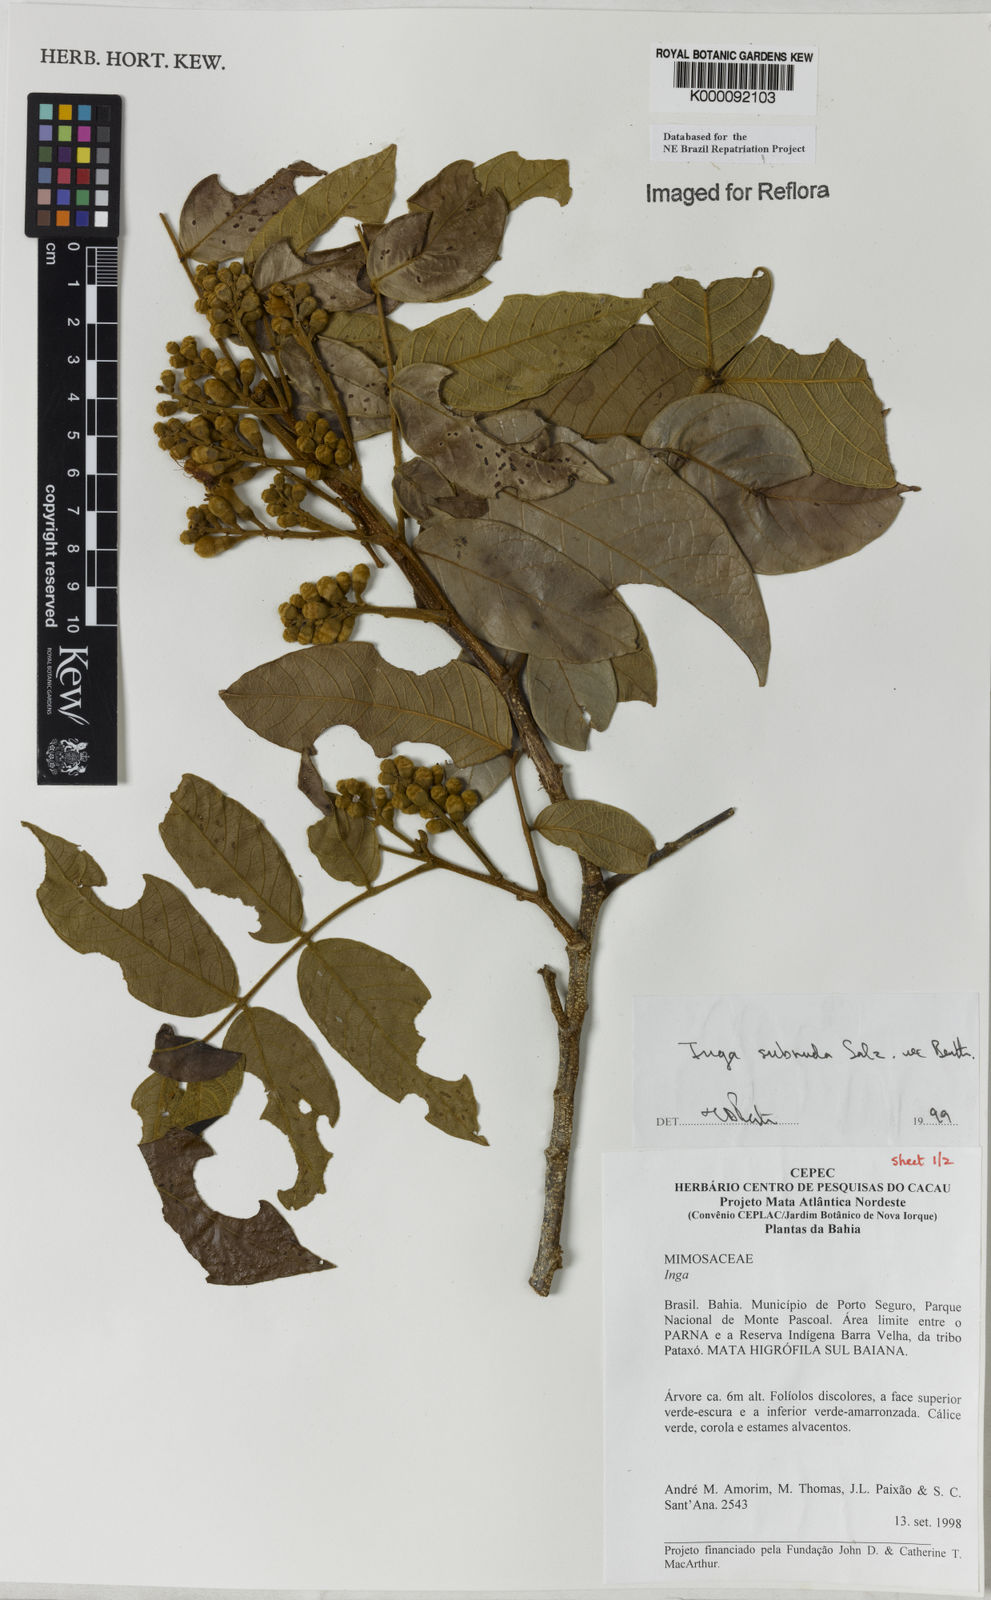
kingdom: Plantae
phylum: Tracheophyta
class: Magnoliopsida
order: Fabales
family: Fabaceae
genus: Inga
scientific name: Inga subnuda
